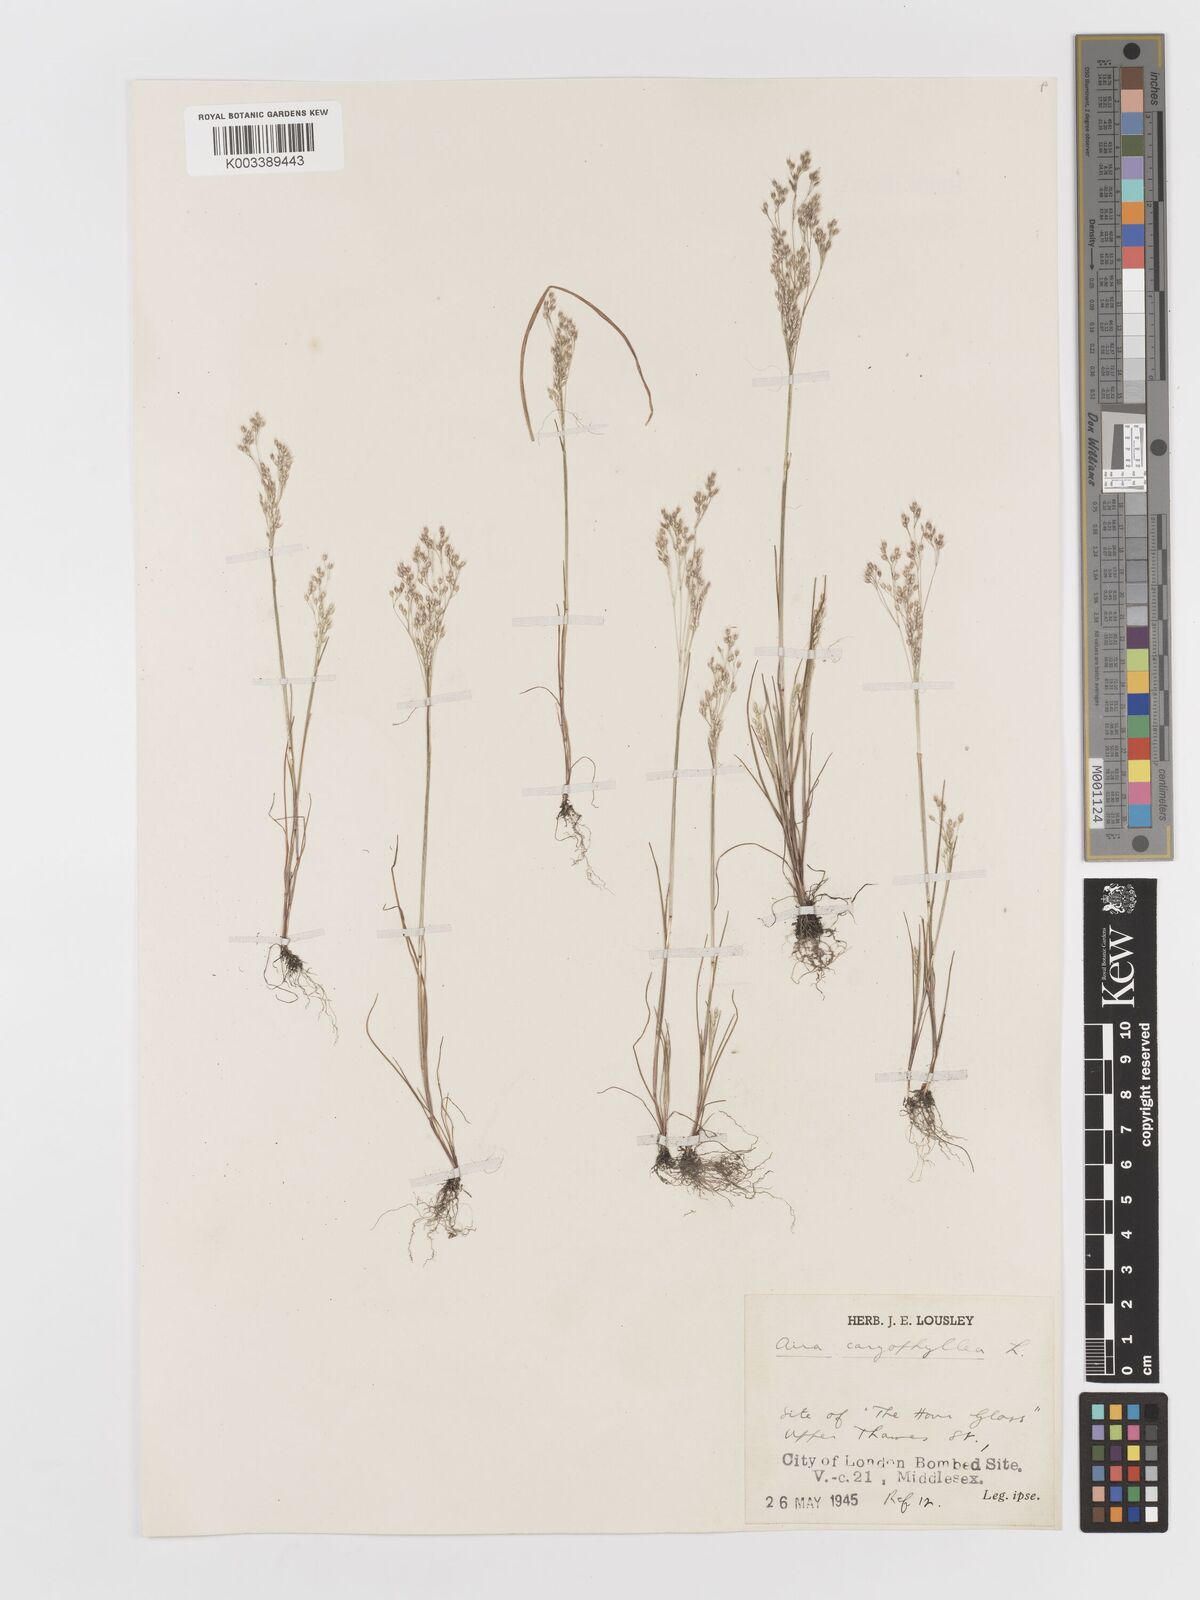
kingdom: Plantae
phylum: Tracheophyta
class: Liliopsida
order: Poales
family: Poaceae
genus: Aira
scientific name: Aira caryophyllea
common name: Silver hairgrass
